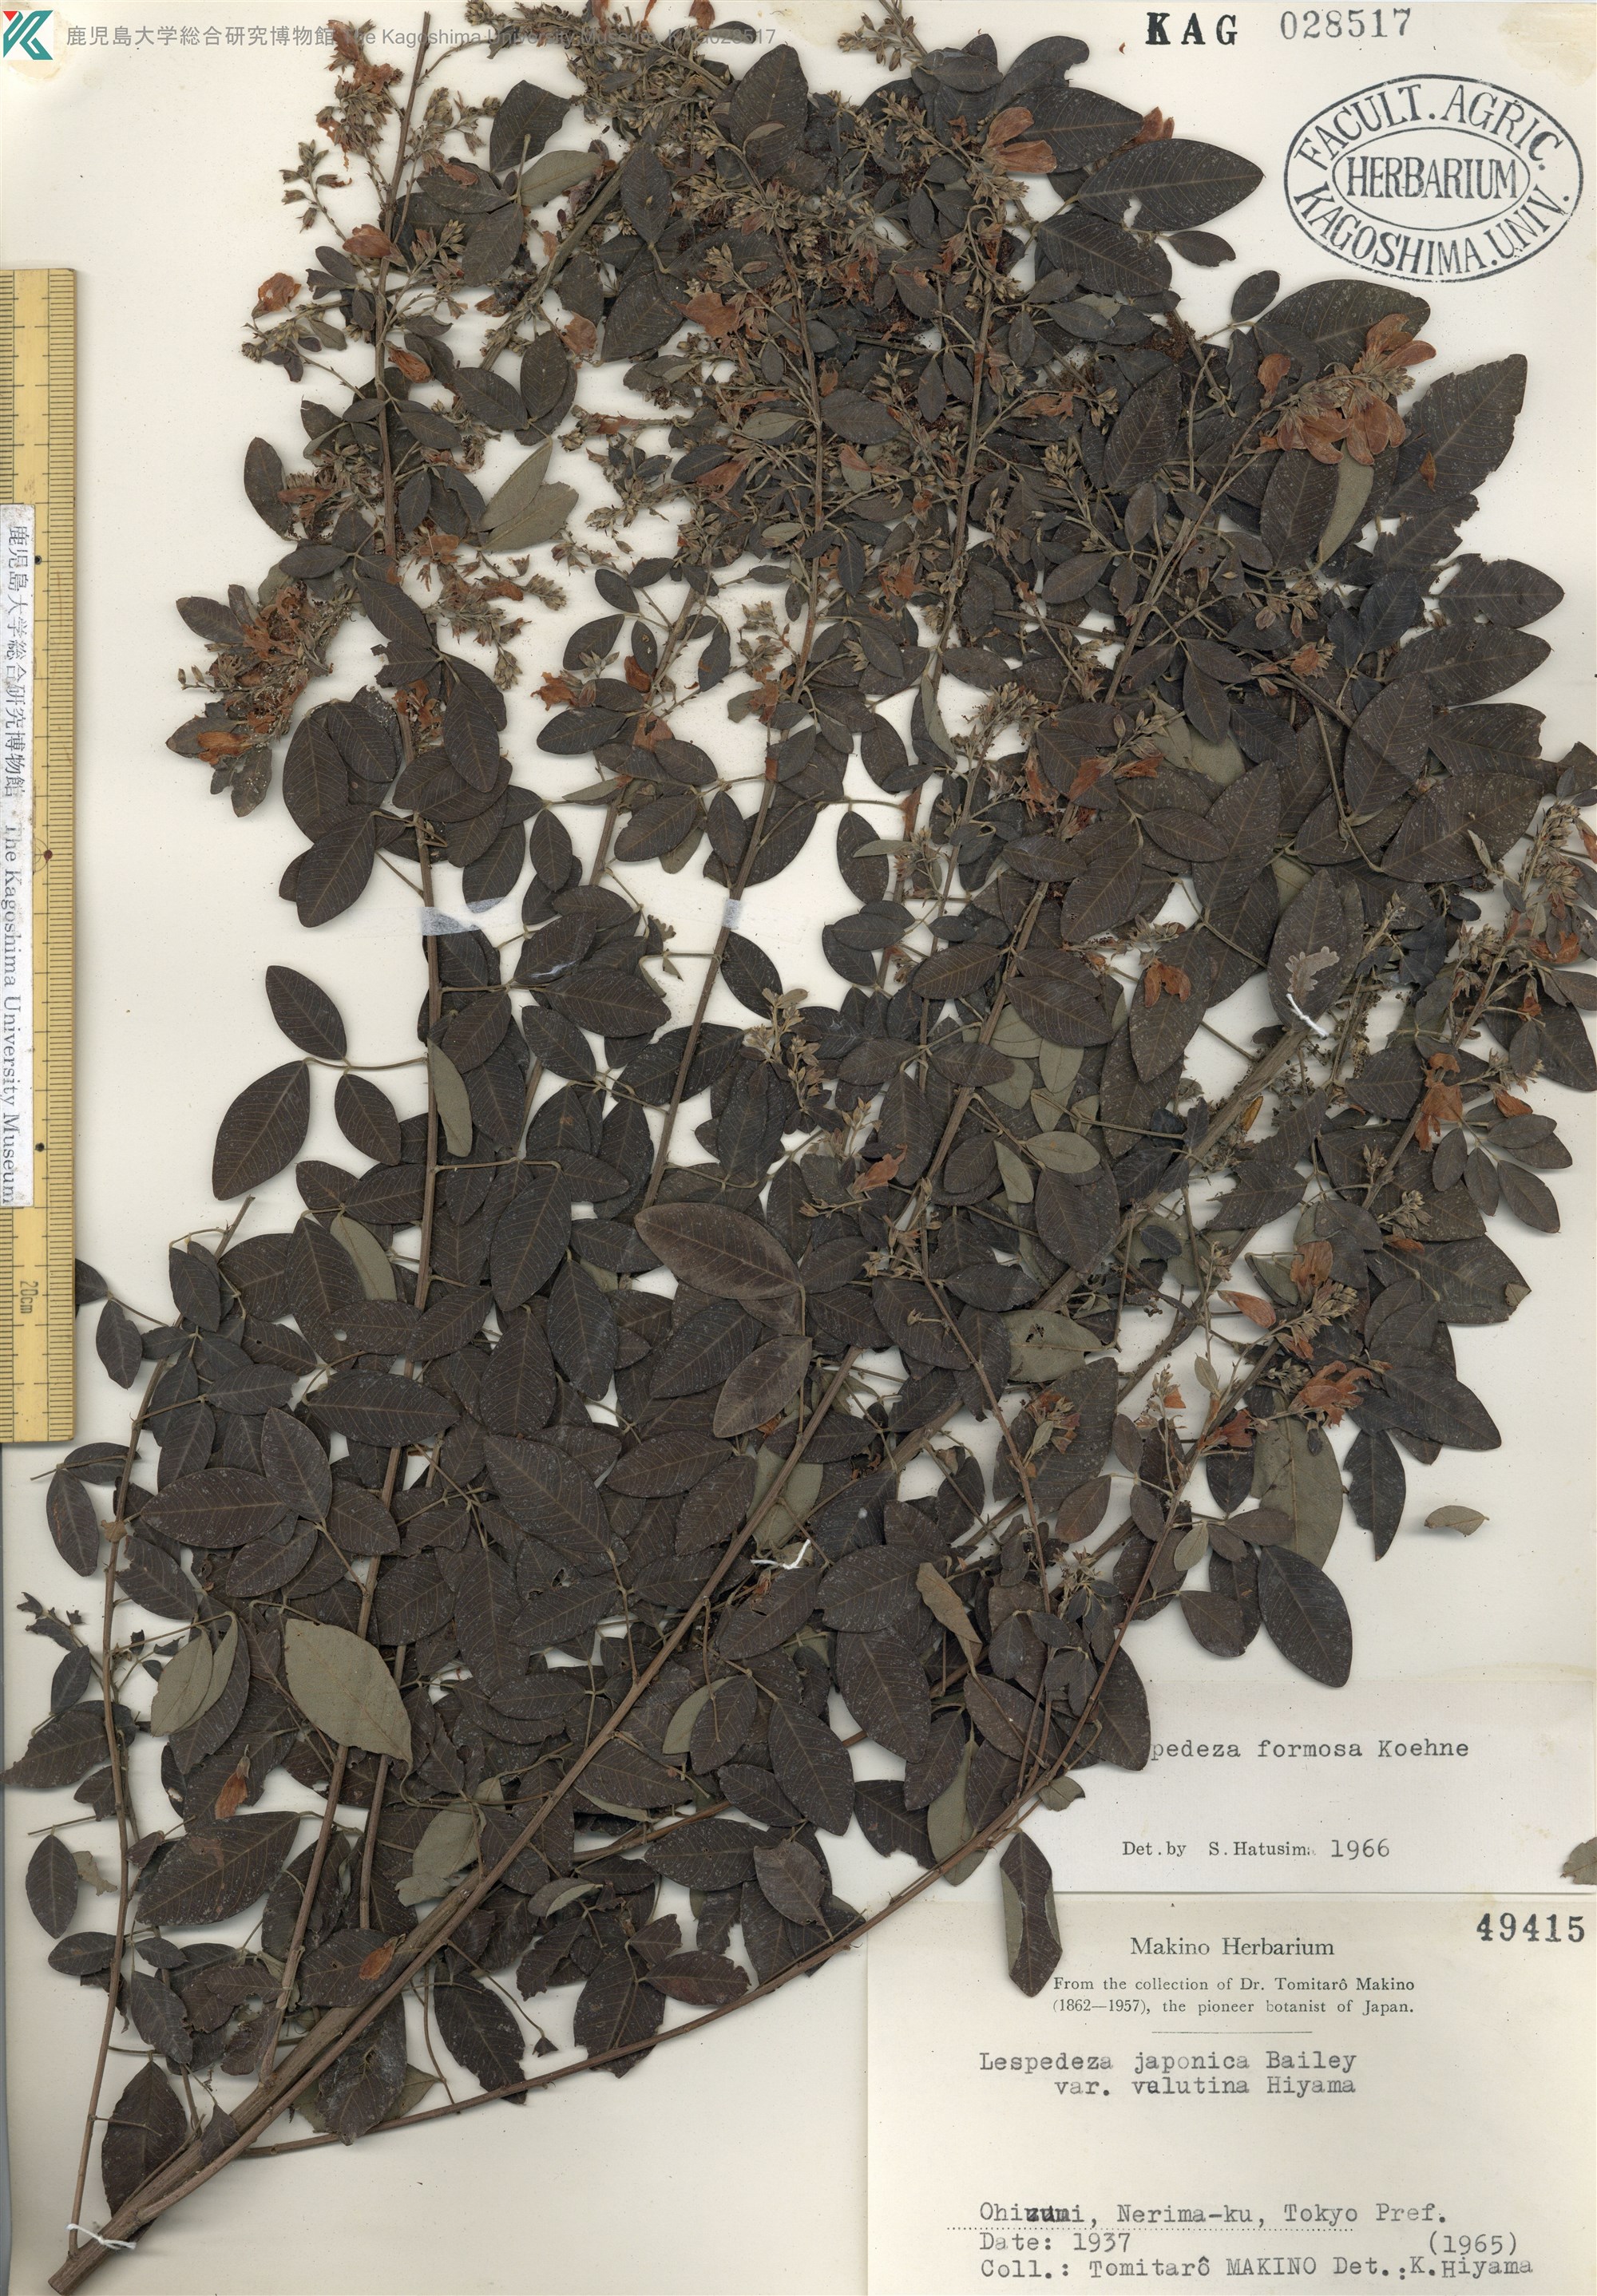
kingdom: Plantae
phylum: Tracheophyta
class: Magnoliopsida
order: Fabales
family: Fabaceae
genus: Lespedeza
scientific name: Lespedeza thunbergii
